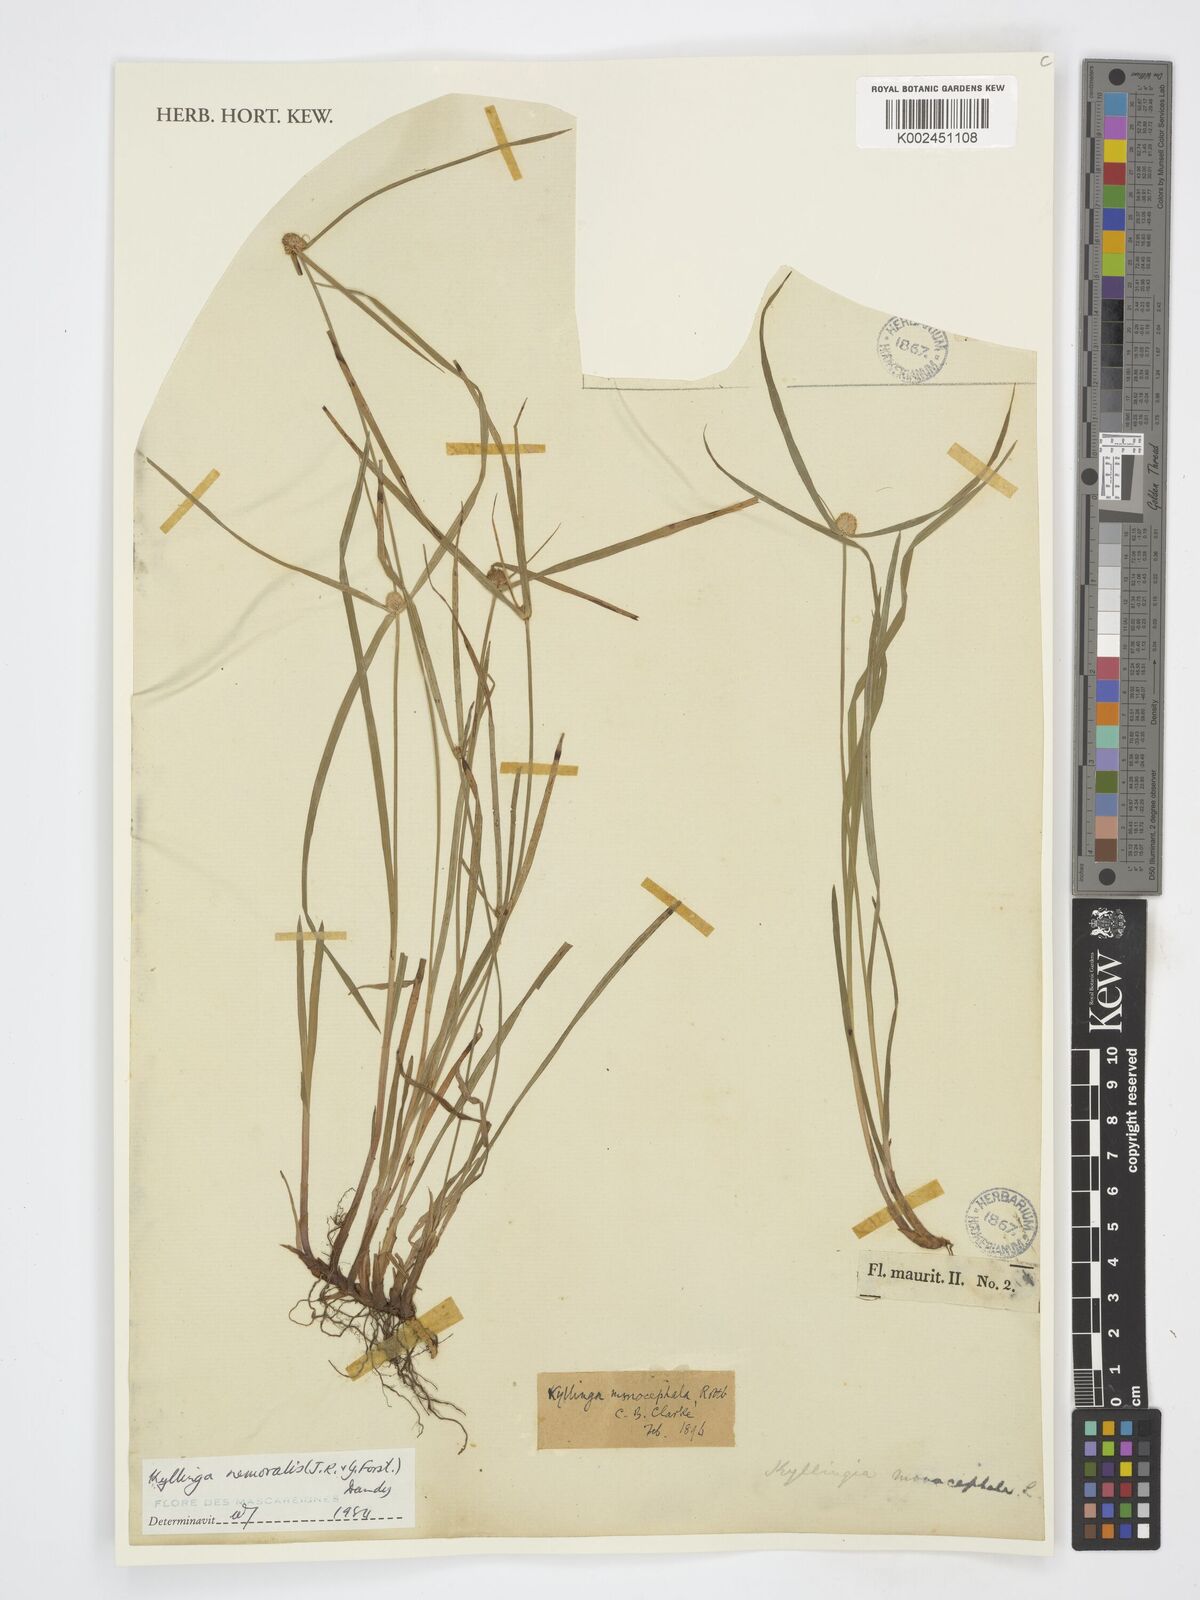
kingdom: Plantae
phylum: Tracheophyta
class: Liliopsida
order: Poales
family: Cyperaceae
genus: Cyperus
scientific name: Cyperus mindorensis
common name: Flatsedge
